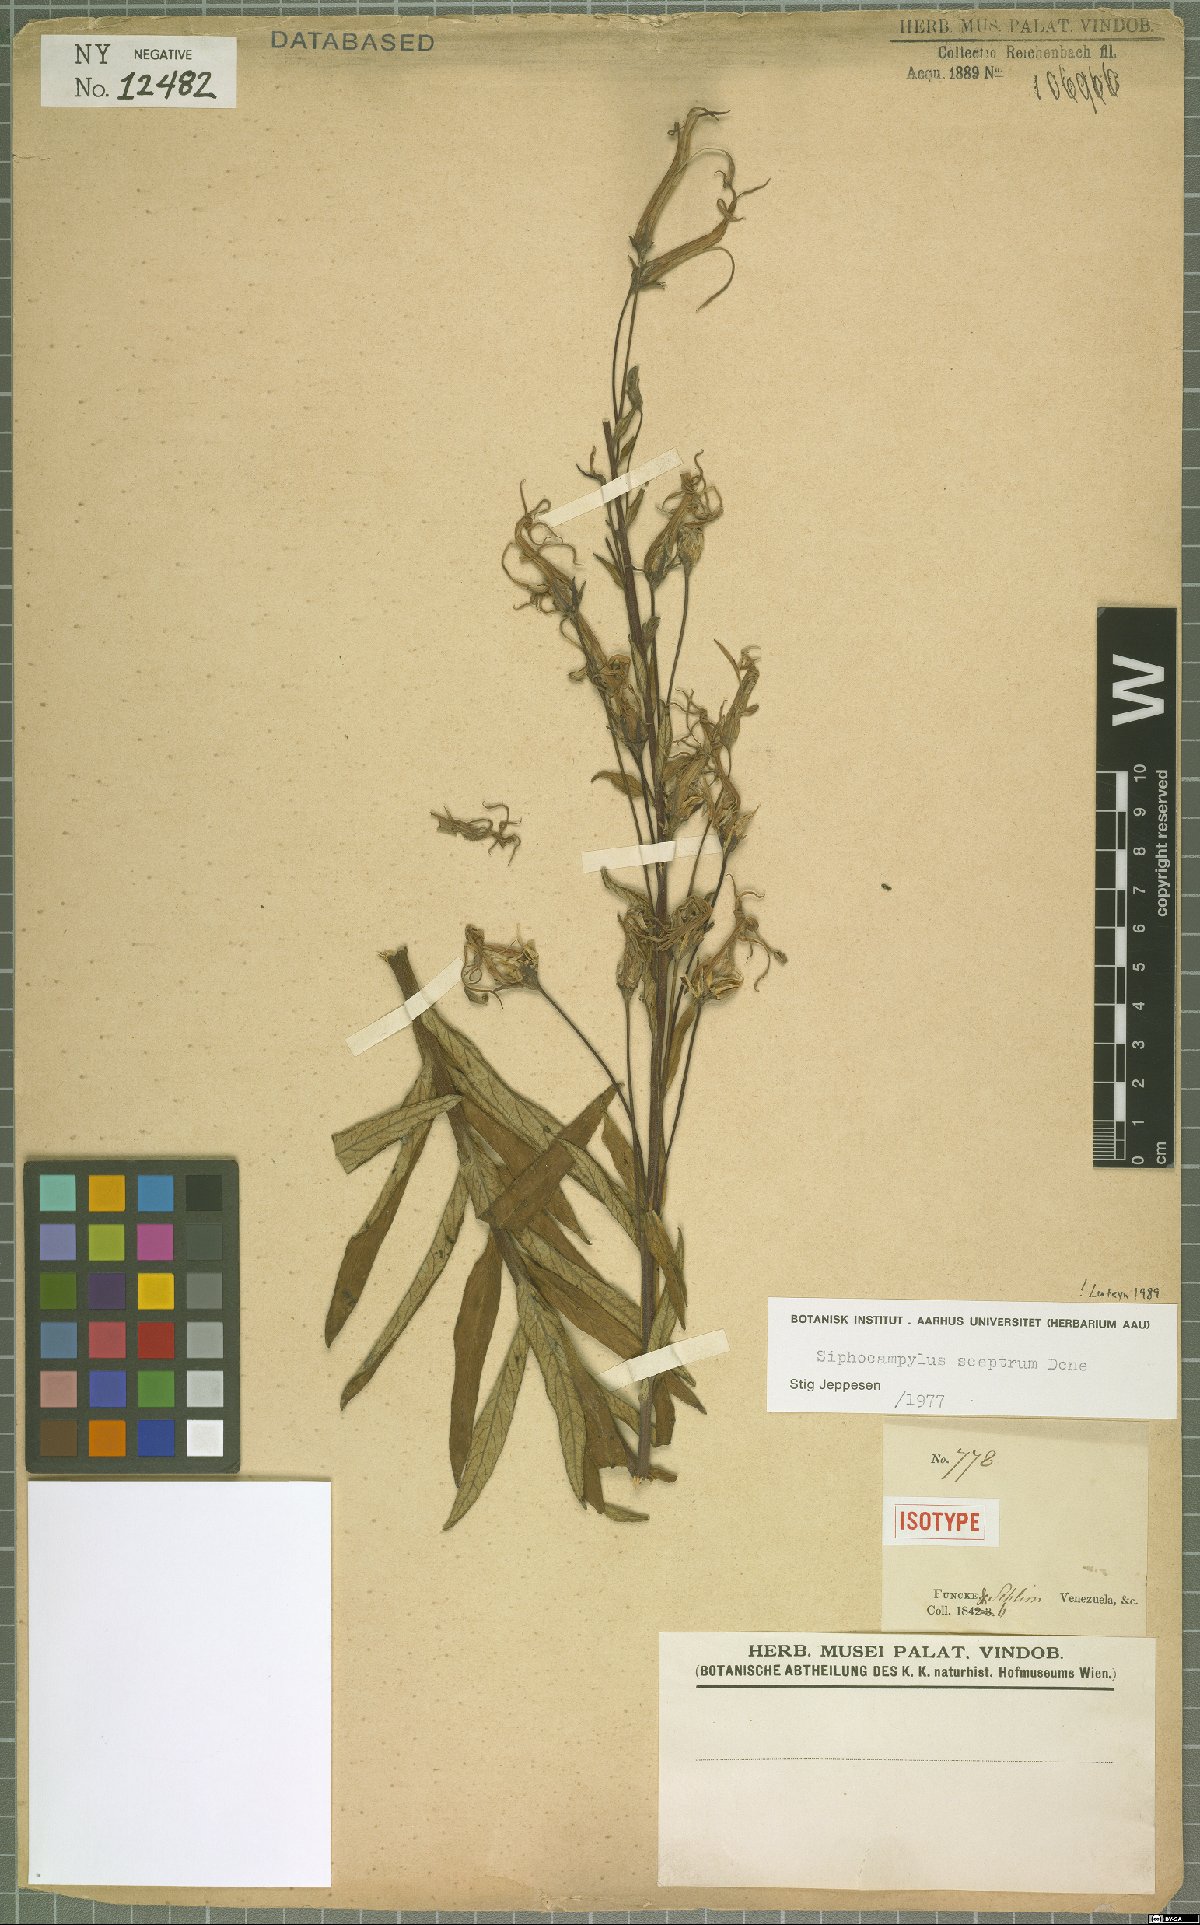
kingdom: Plantae
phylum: Tracheophyta
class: Magnoliopsida
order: Asterales
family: Campanulaceae
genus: Siphocampylus
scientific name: Siphocampylus sceptrum
